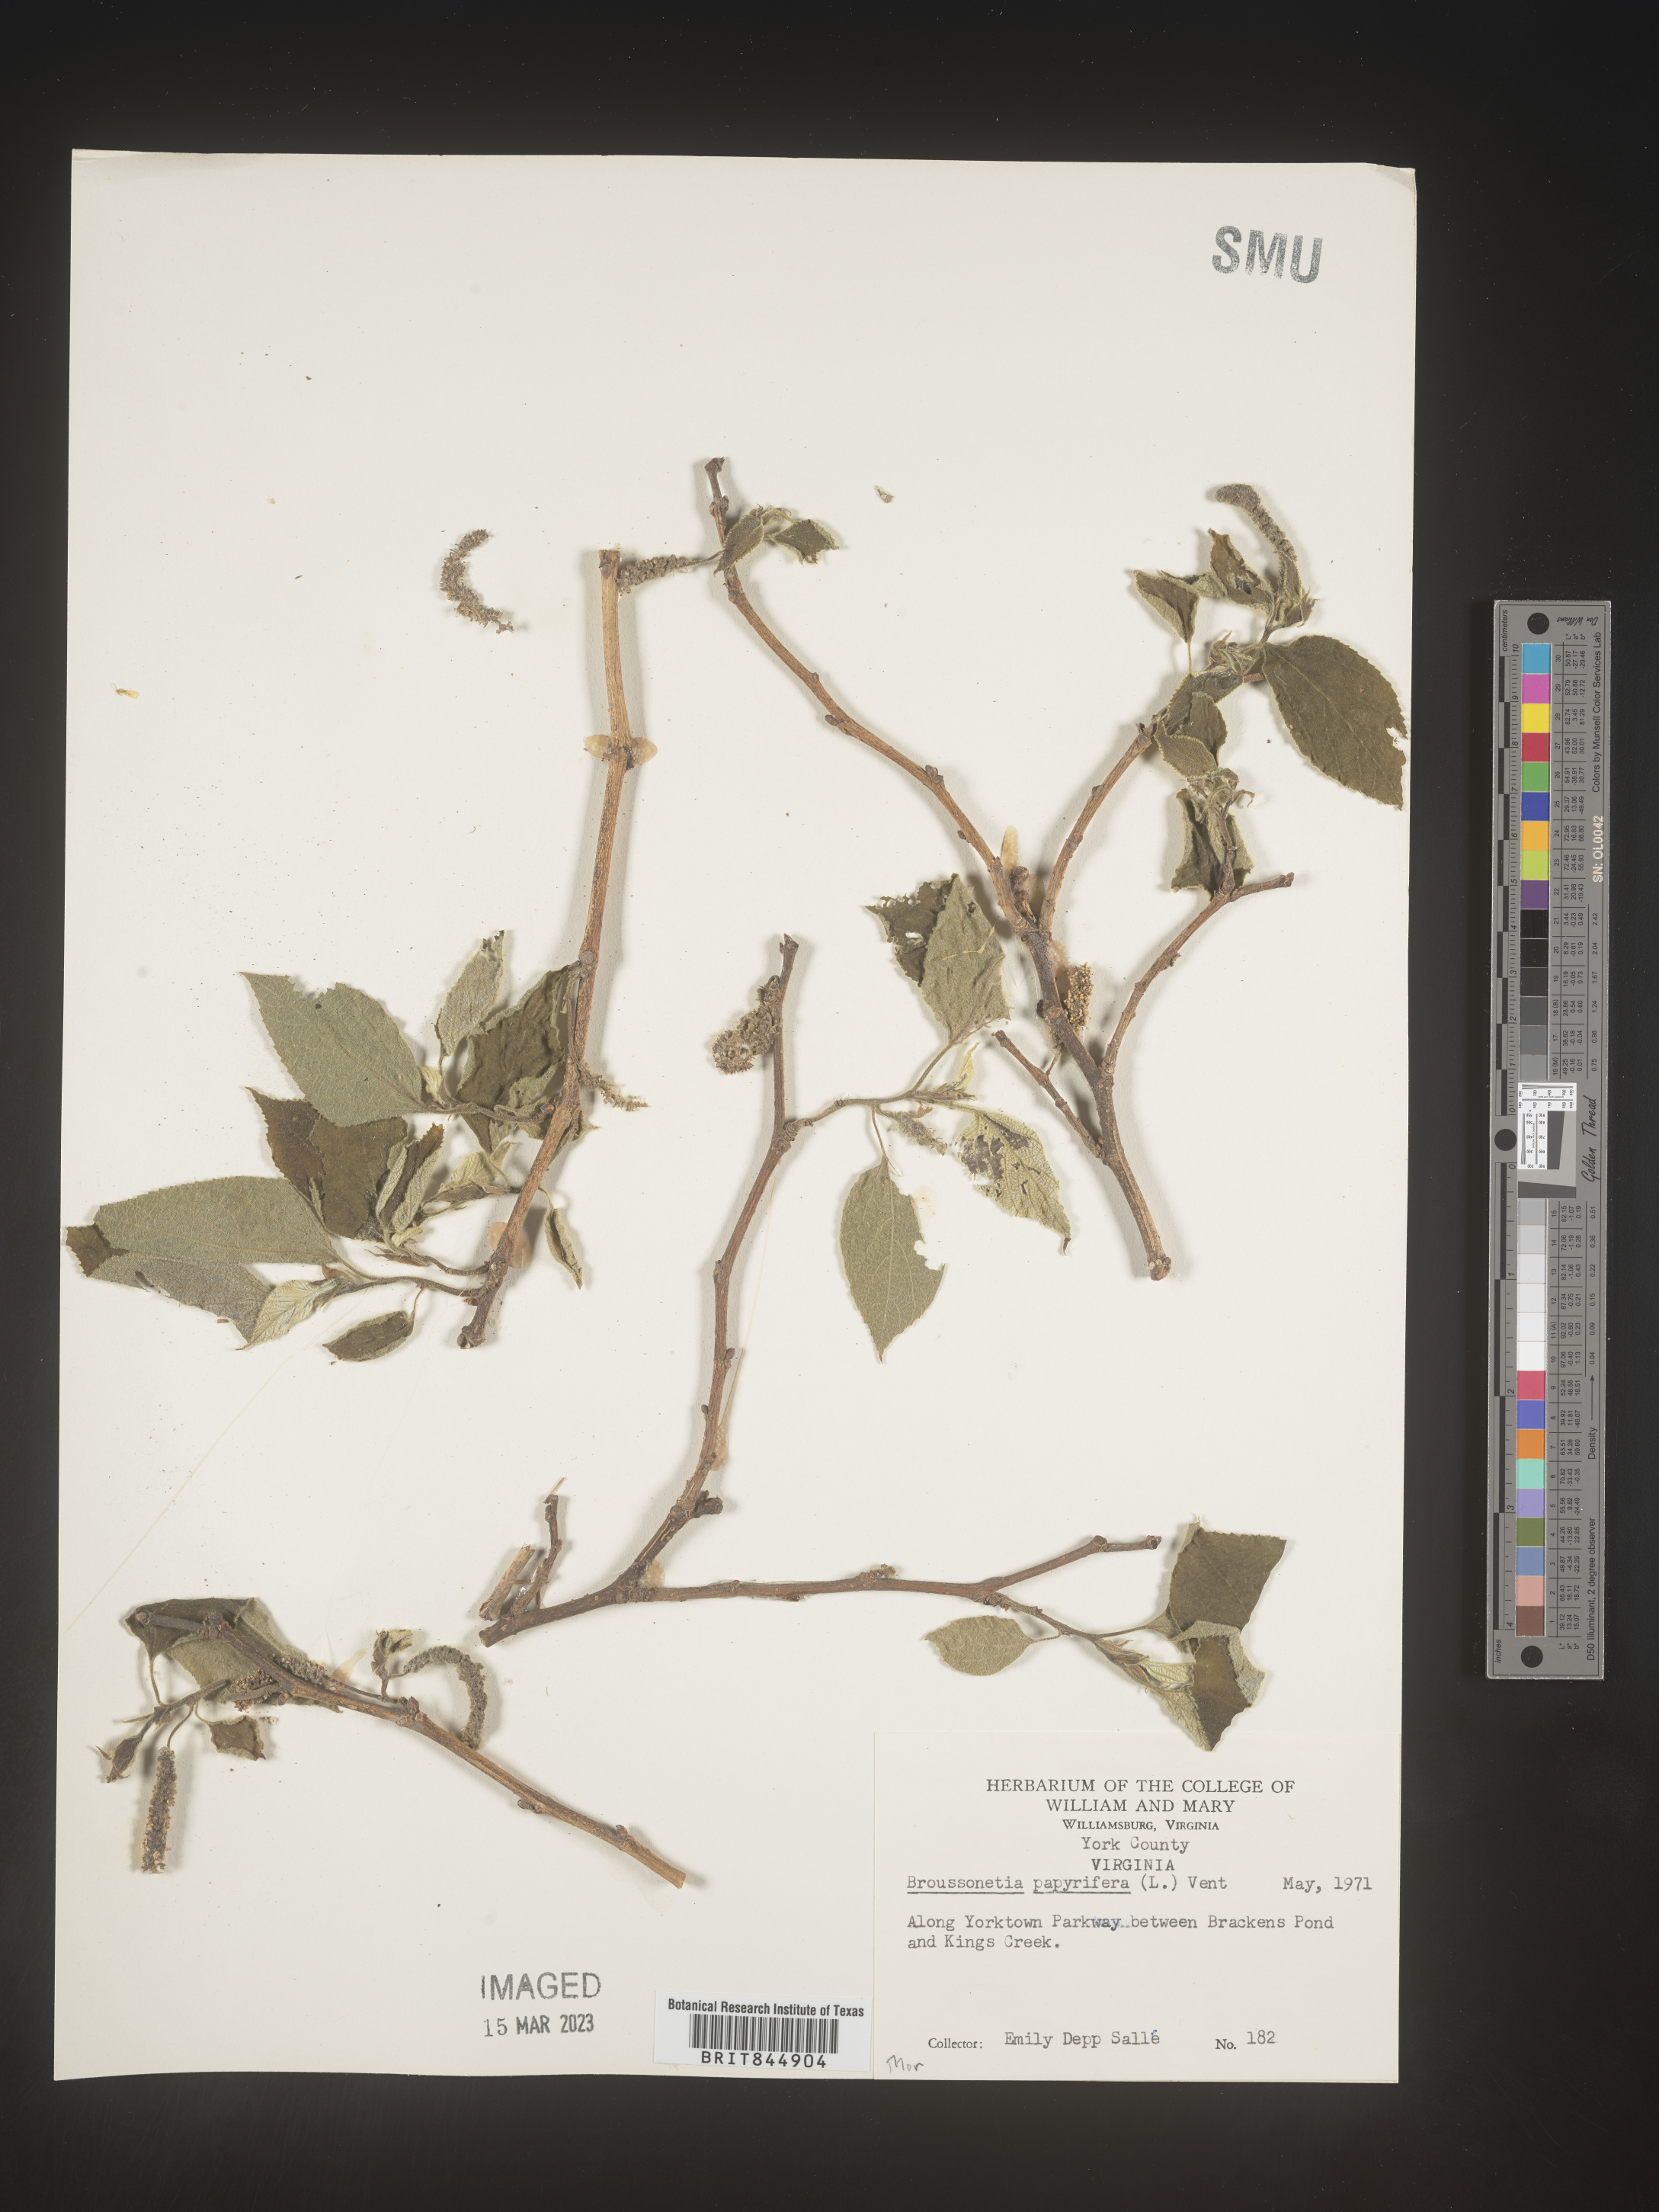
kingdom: Plantae
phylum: Tracheophyta
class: Magnoliopsida
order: Rosales
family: Moraceae
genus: Broussonetia
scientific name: Broussonetia
